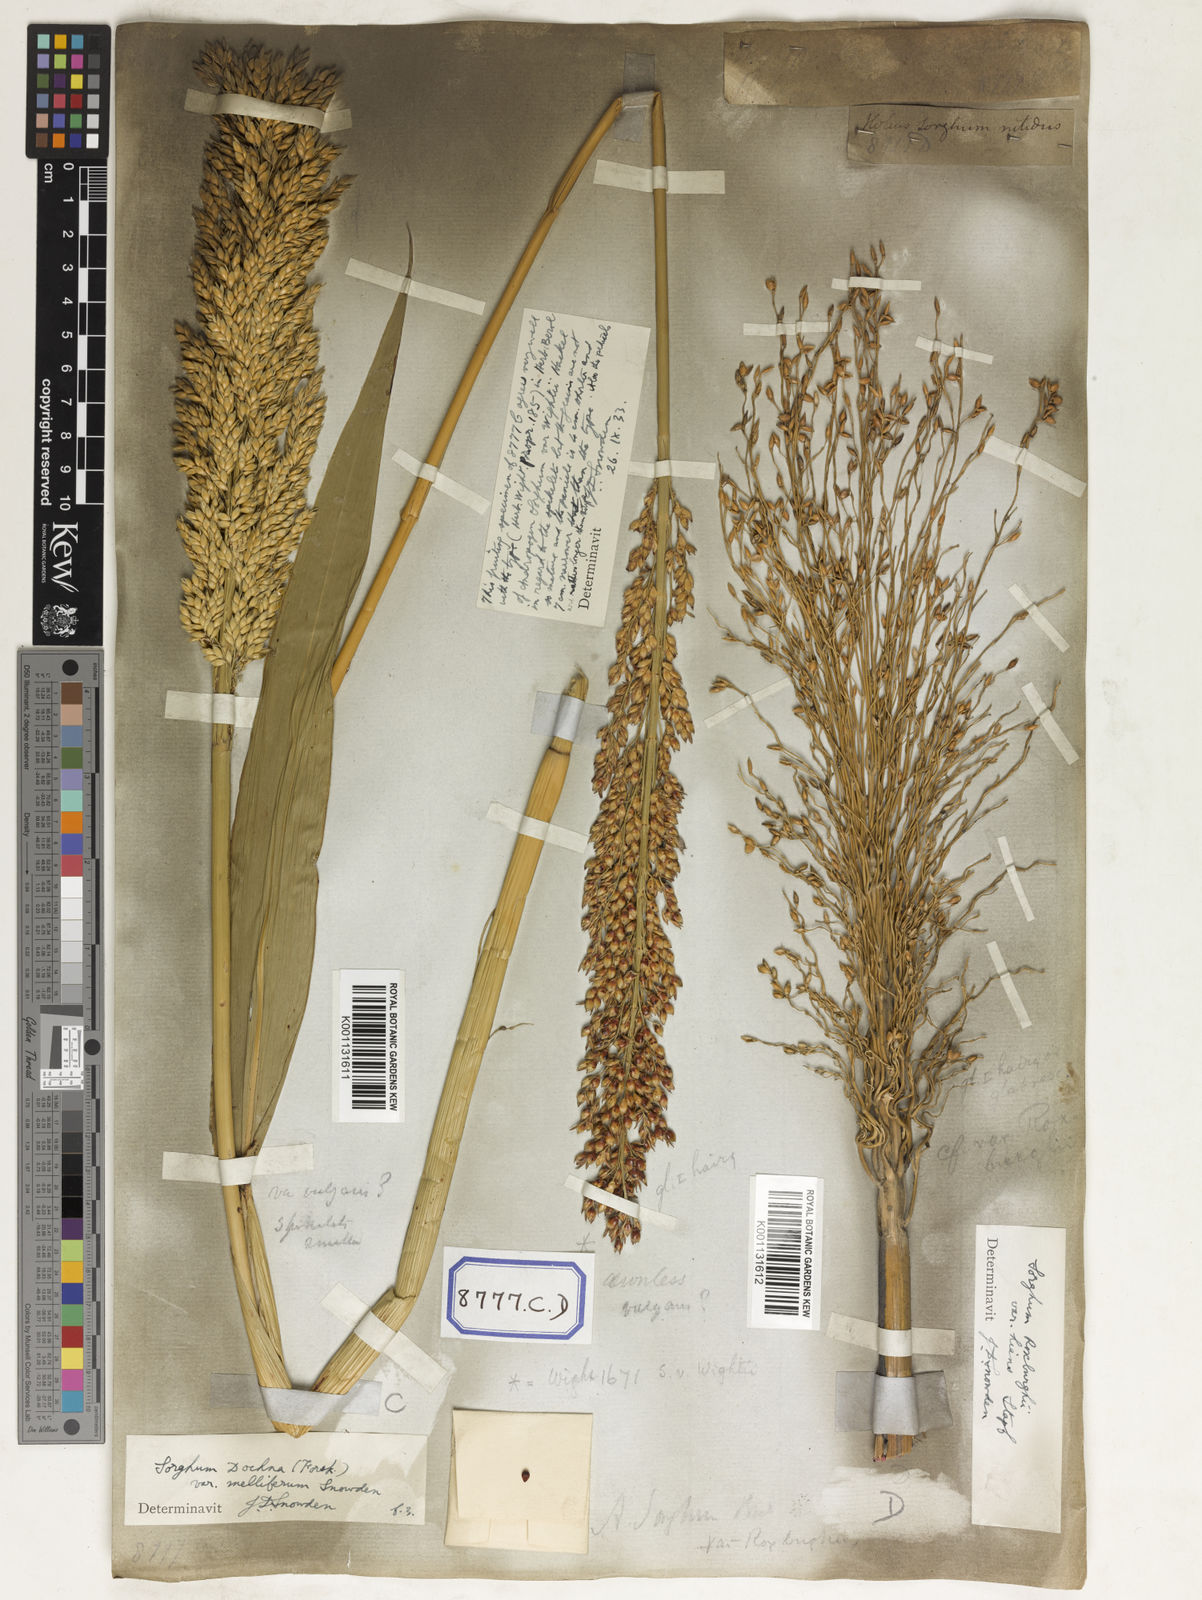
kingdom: Plantae
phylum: Tracheophyta
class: Liliopsida
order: Poales
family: Poaceae
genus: Sorghum
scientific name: Sorghum bicolor
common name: Sorghum
